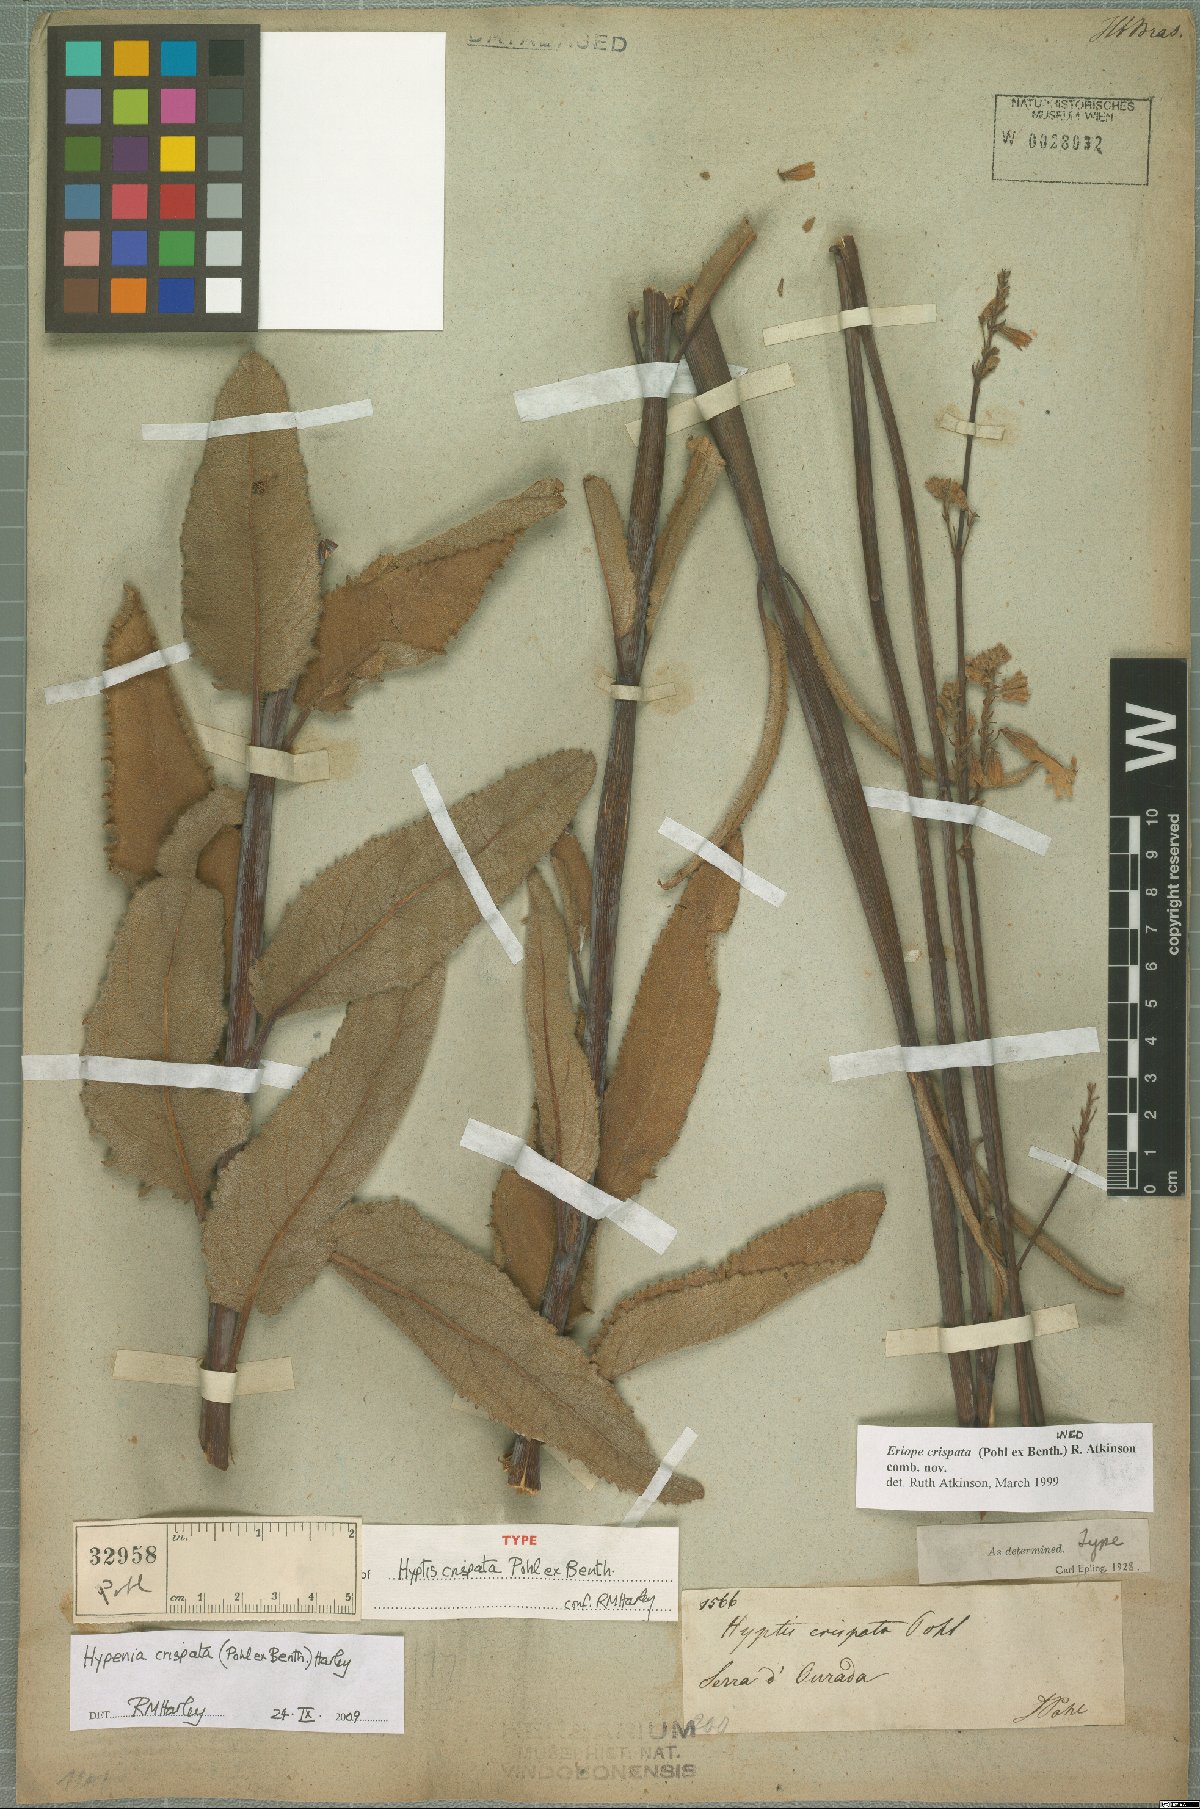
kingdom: Plantae
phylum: Tracheophyta
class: Magnoliopsida
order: Lamiales
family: Lamiaceae
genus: Hypenia
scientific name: Hypenia crispata
